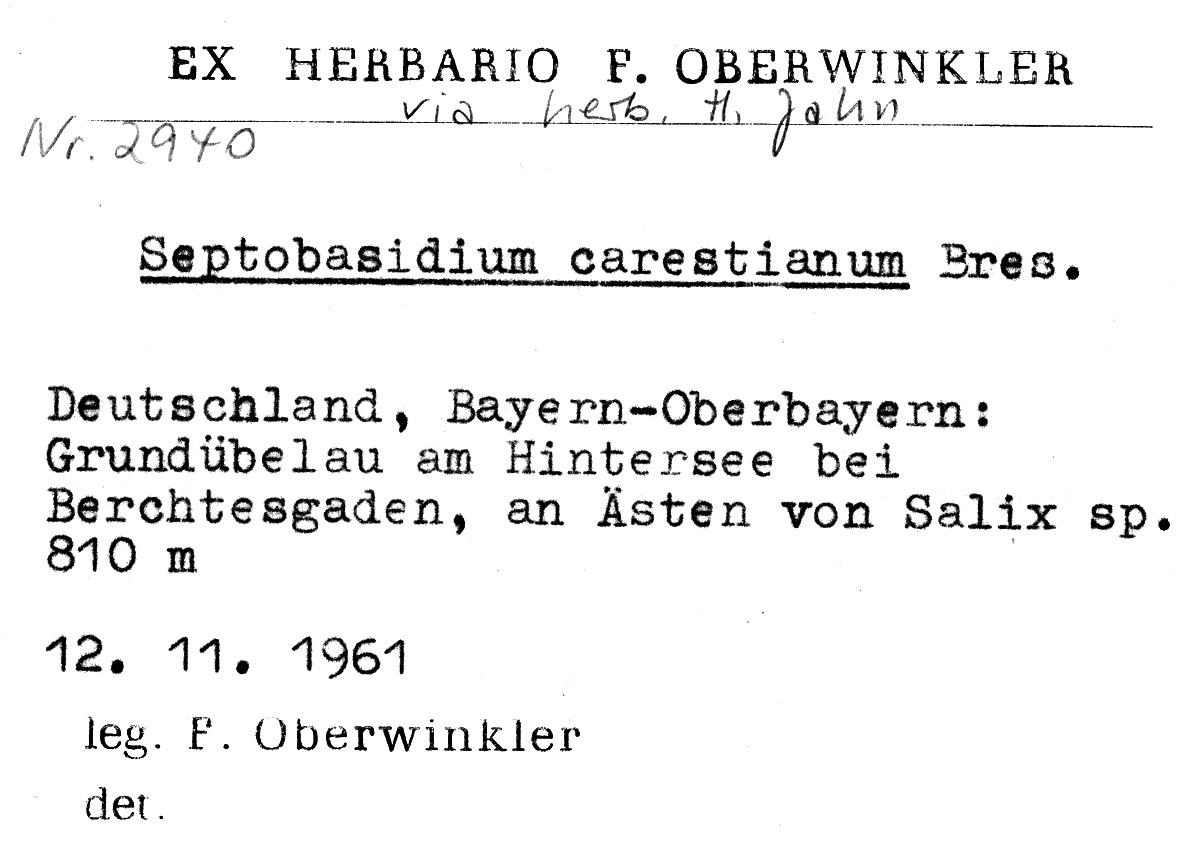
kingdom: Plantae
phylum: Tracheophyta
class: Magnoliopsida
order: Malpighiales
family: Salicaceae
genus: Salix
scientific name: Salix
